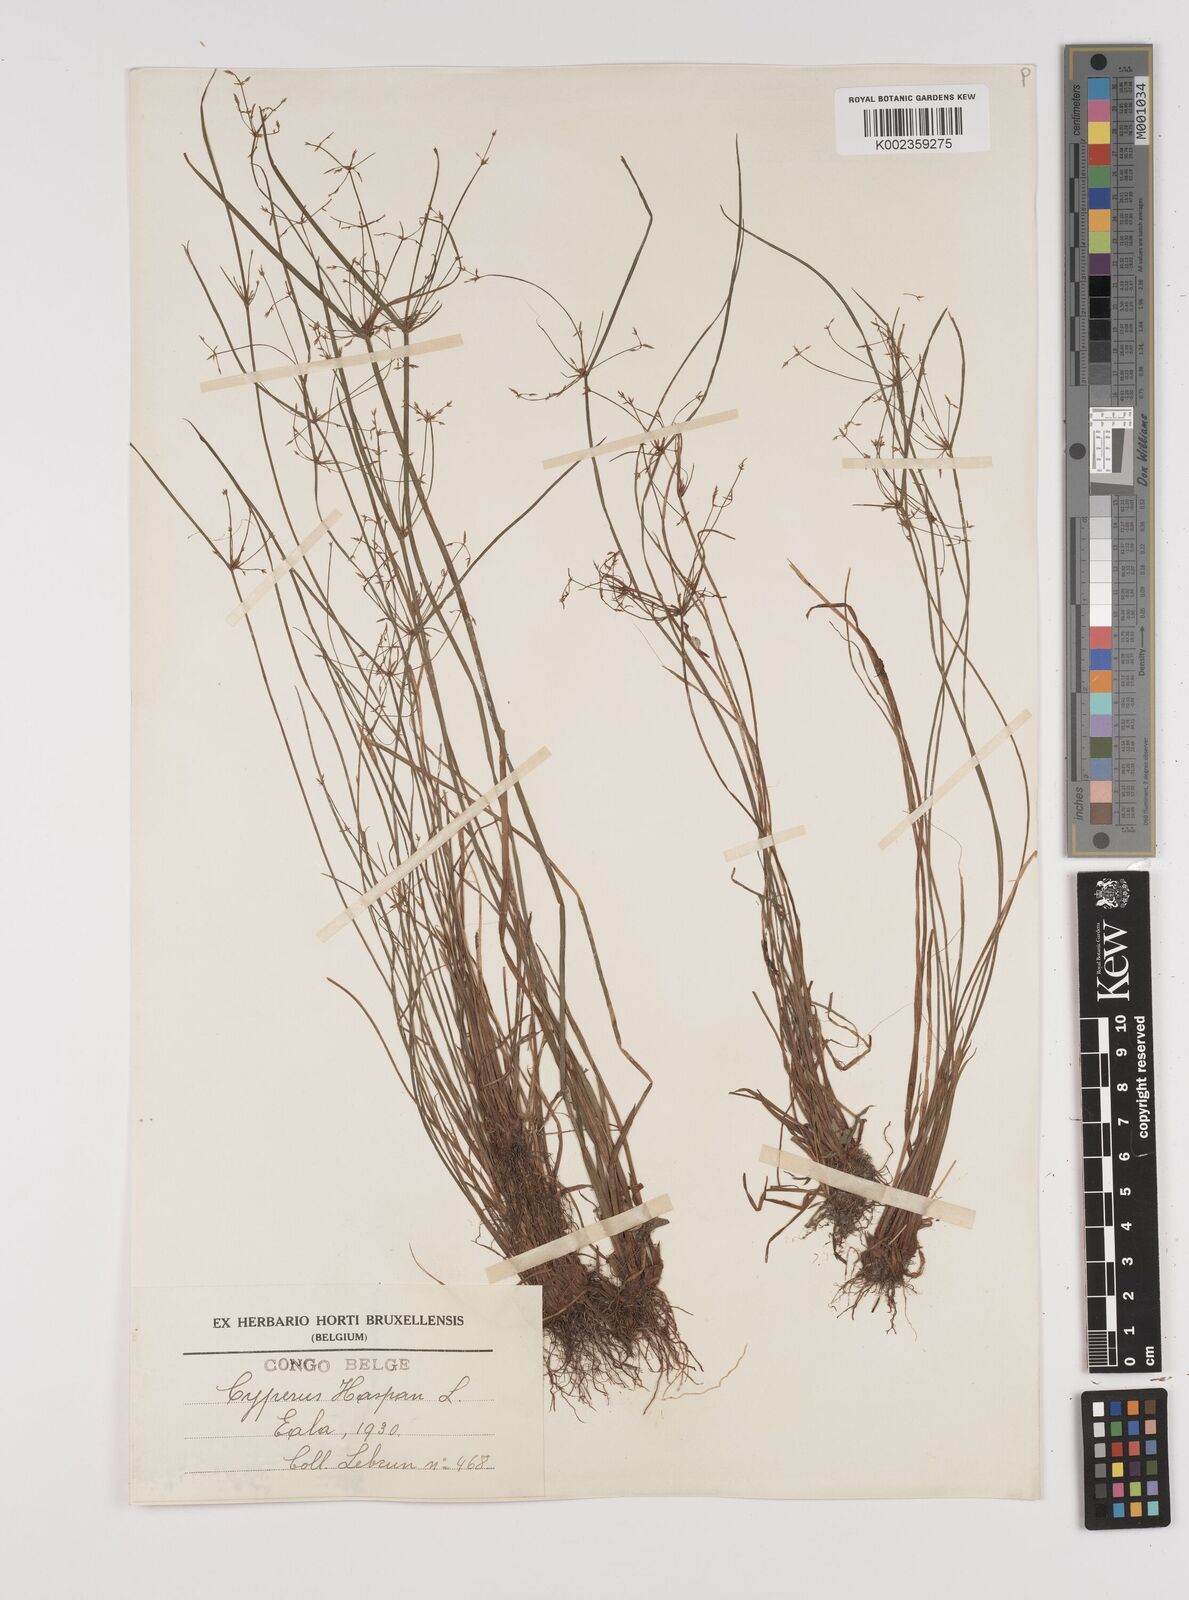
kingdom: Plantae
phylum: Tracheophyta
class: Liliopsida
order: Poales
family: Cyperaceae
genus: Cyperus
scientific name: Cyperus haspan
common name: Haspan flatsedge
